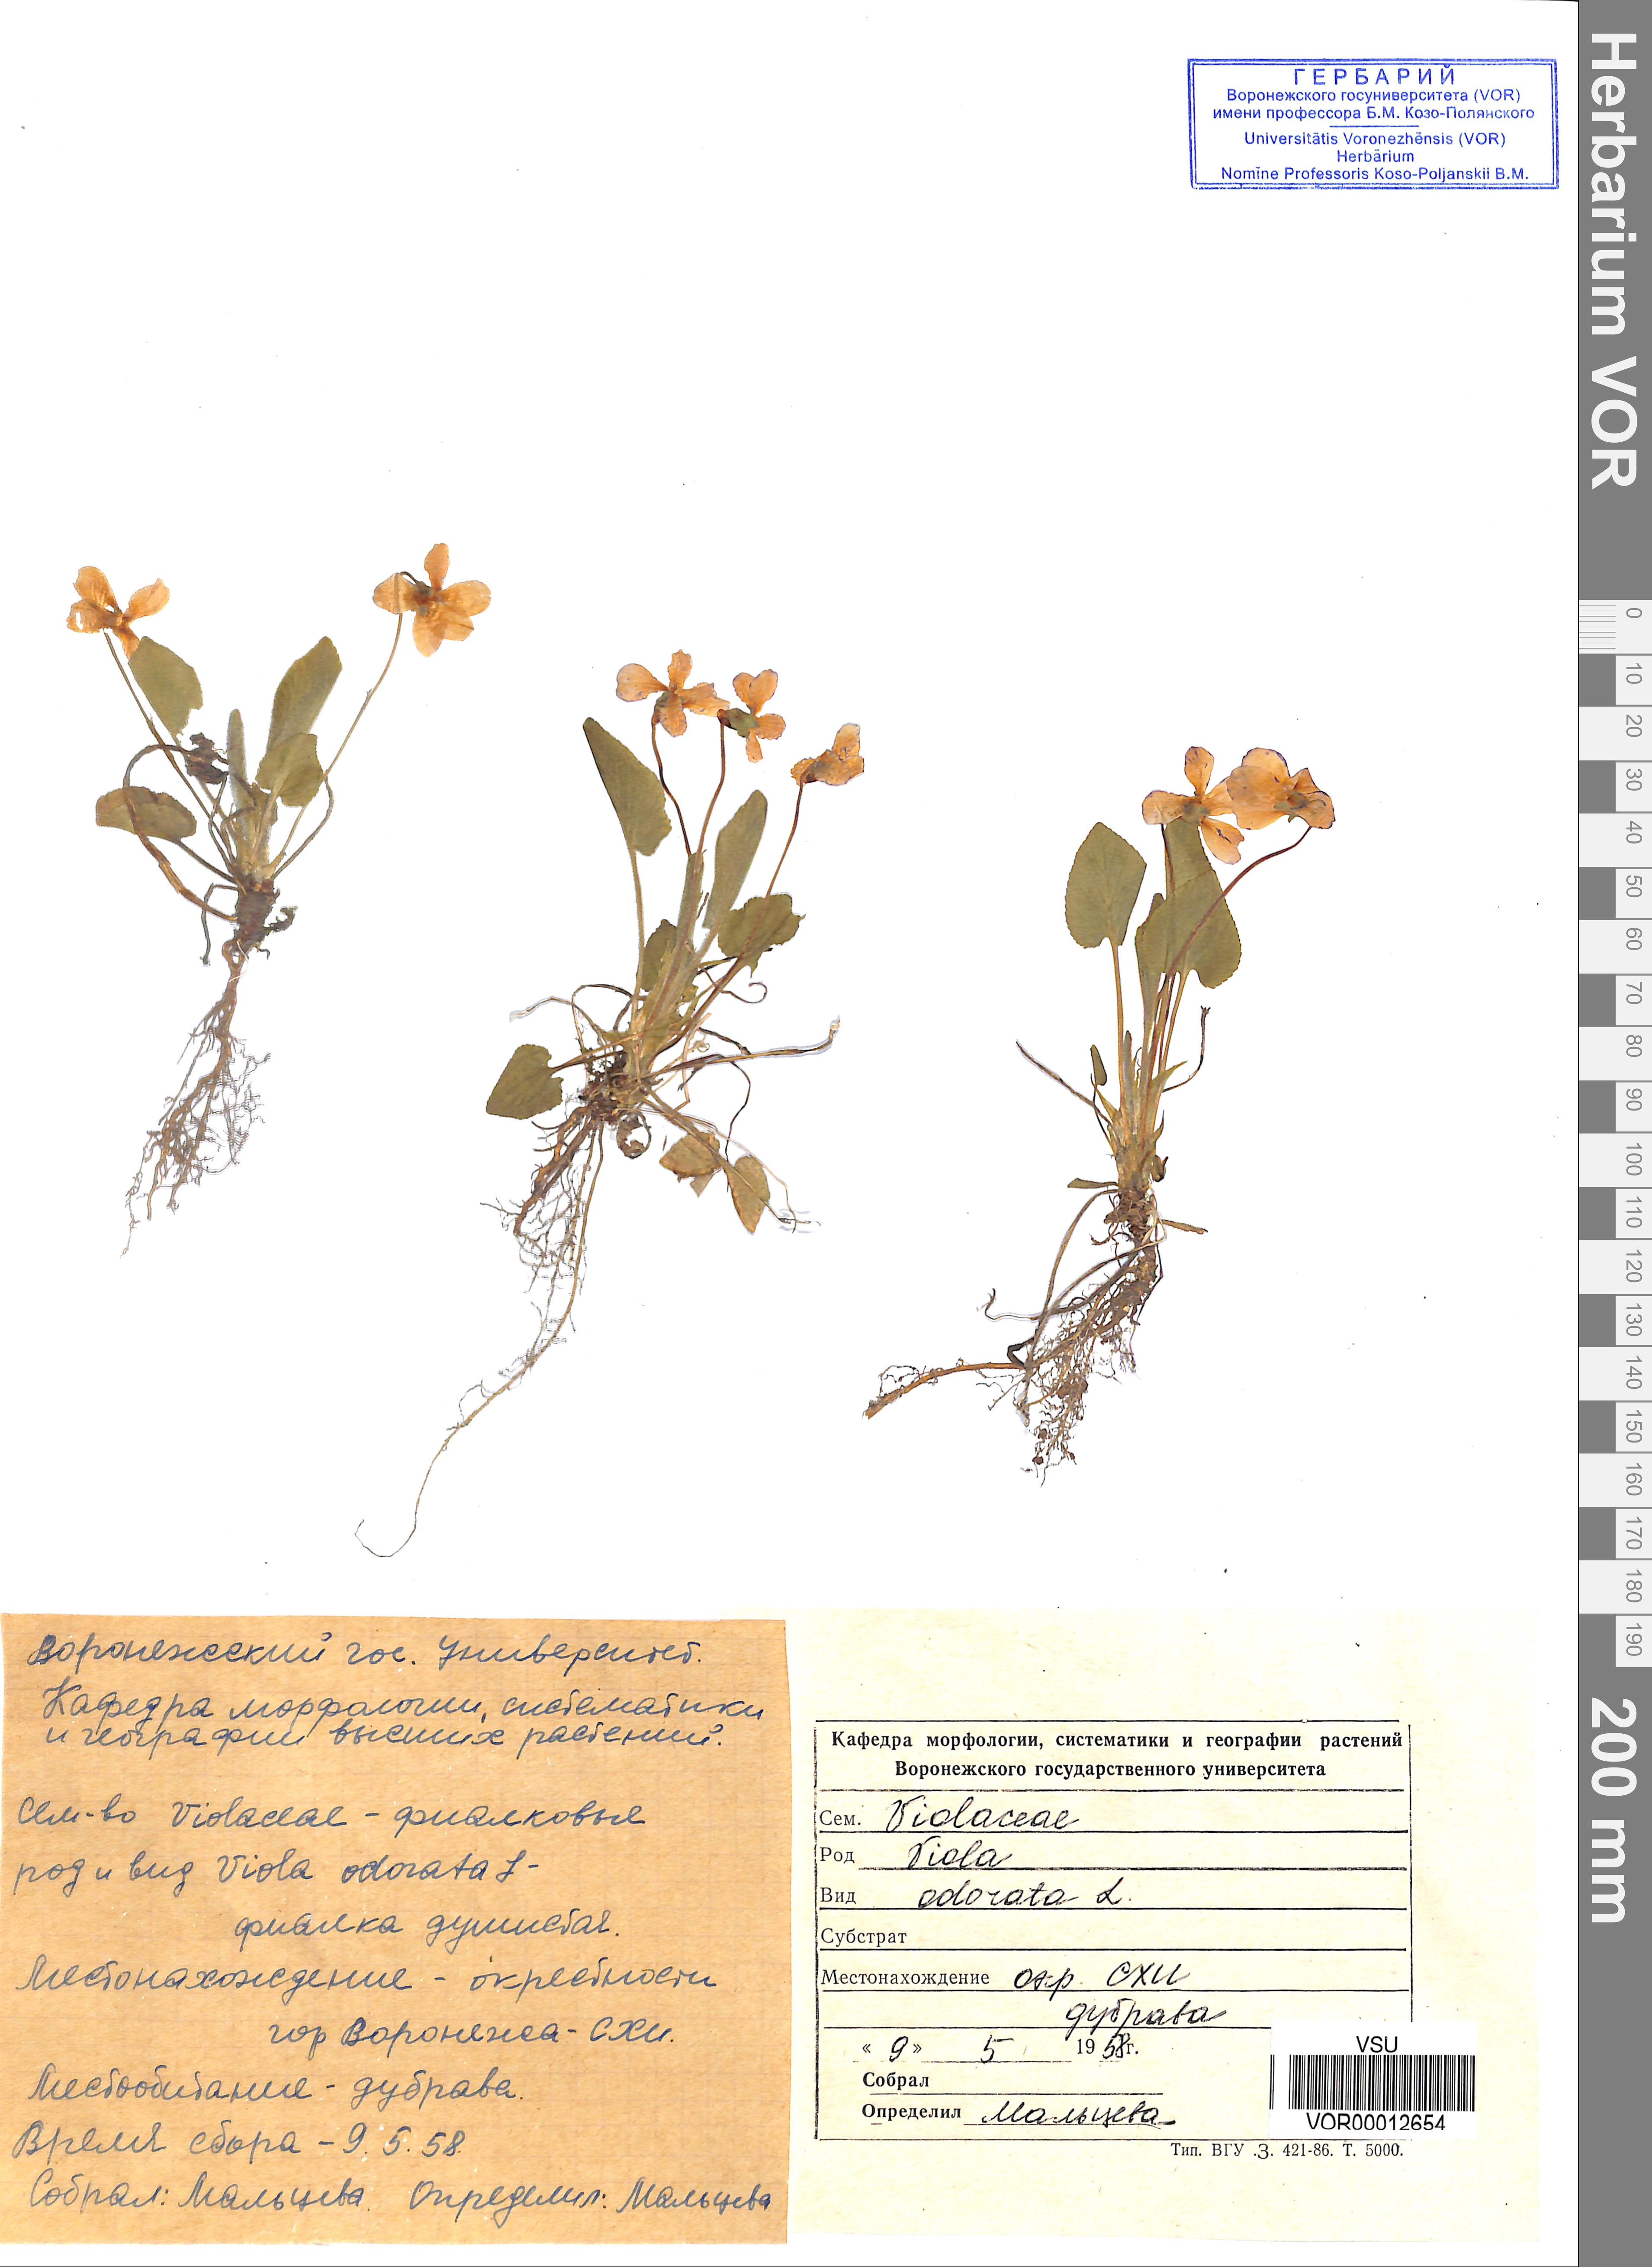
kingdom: Plantae
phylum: Tracheophyta
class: Magnoliopsida
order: Malpighiales
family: Violaceae
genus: Viola
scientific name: Viola odorata
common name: Sweet violet
